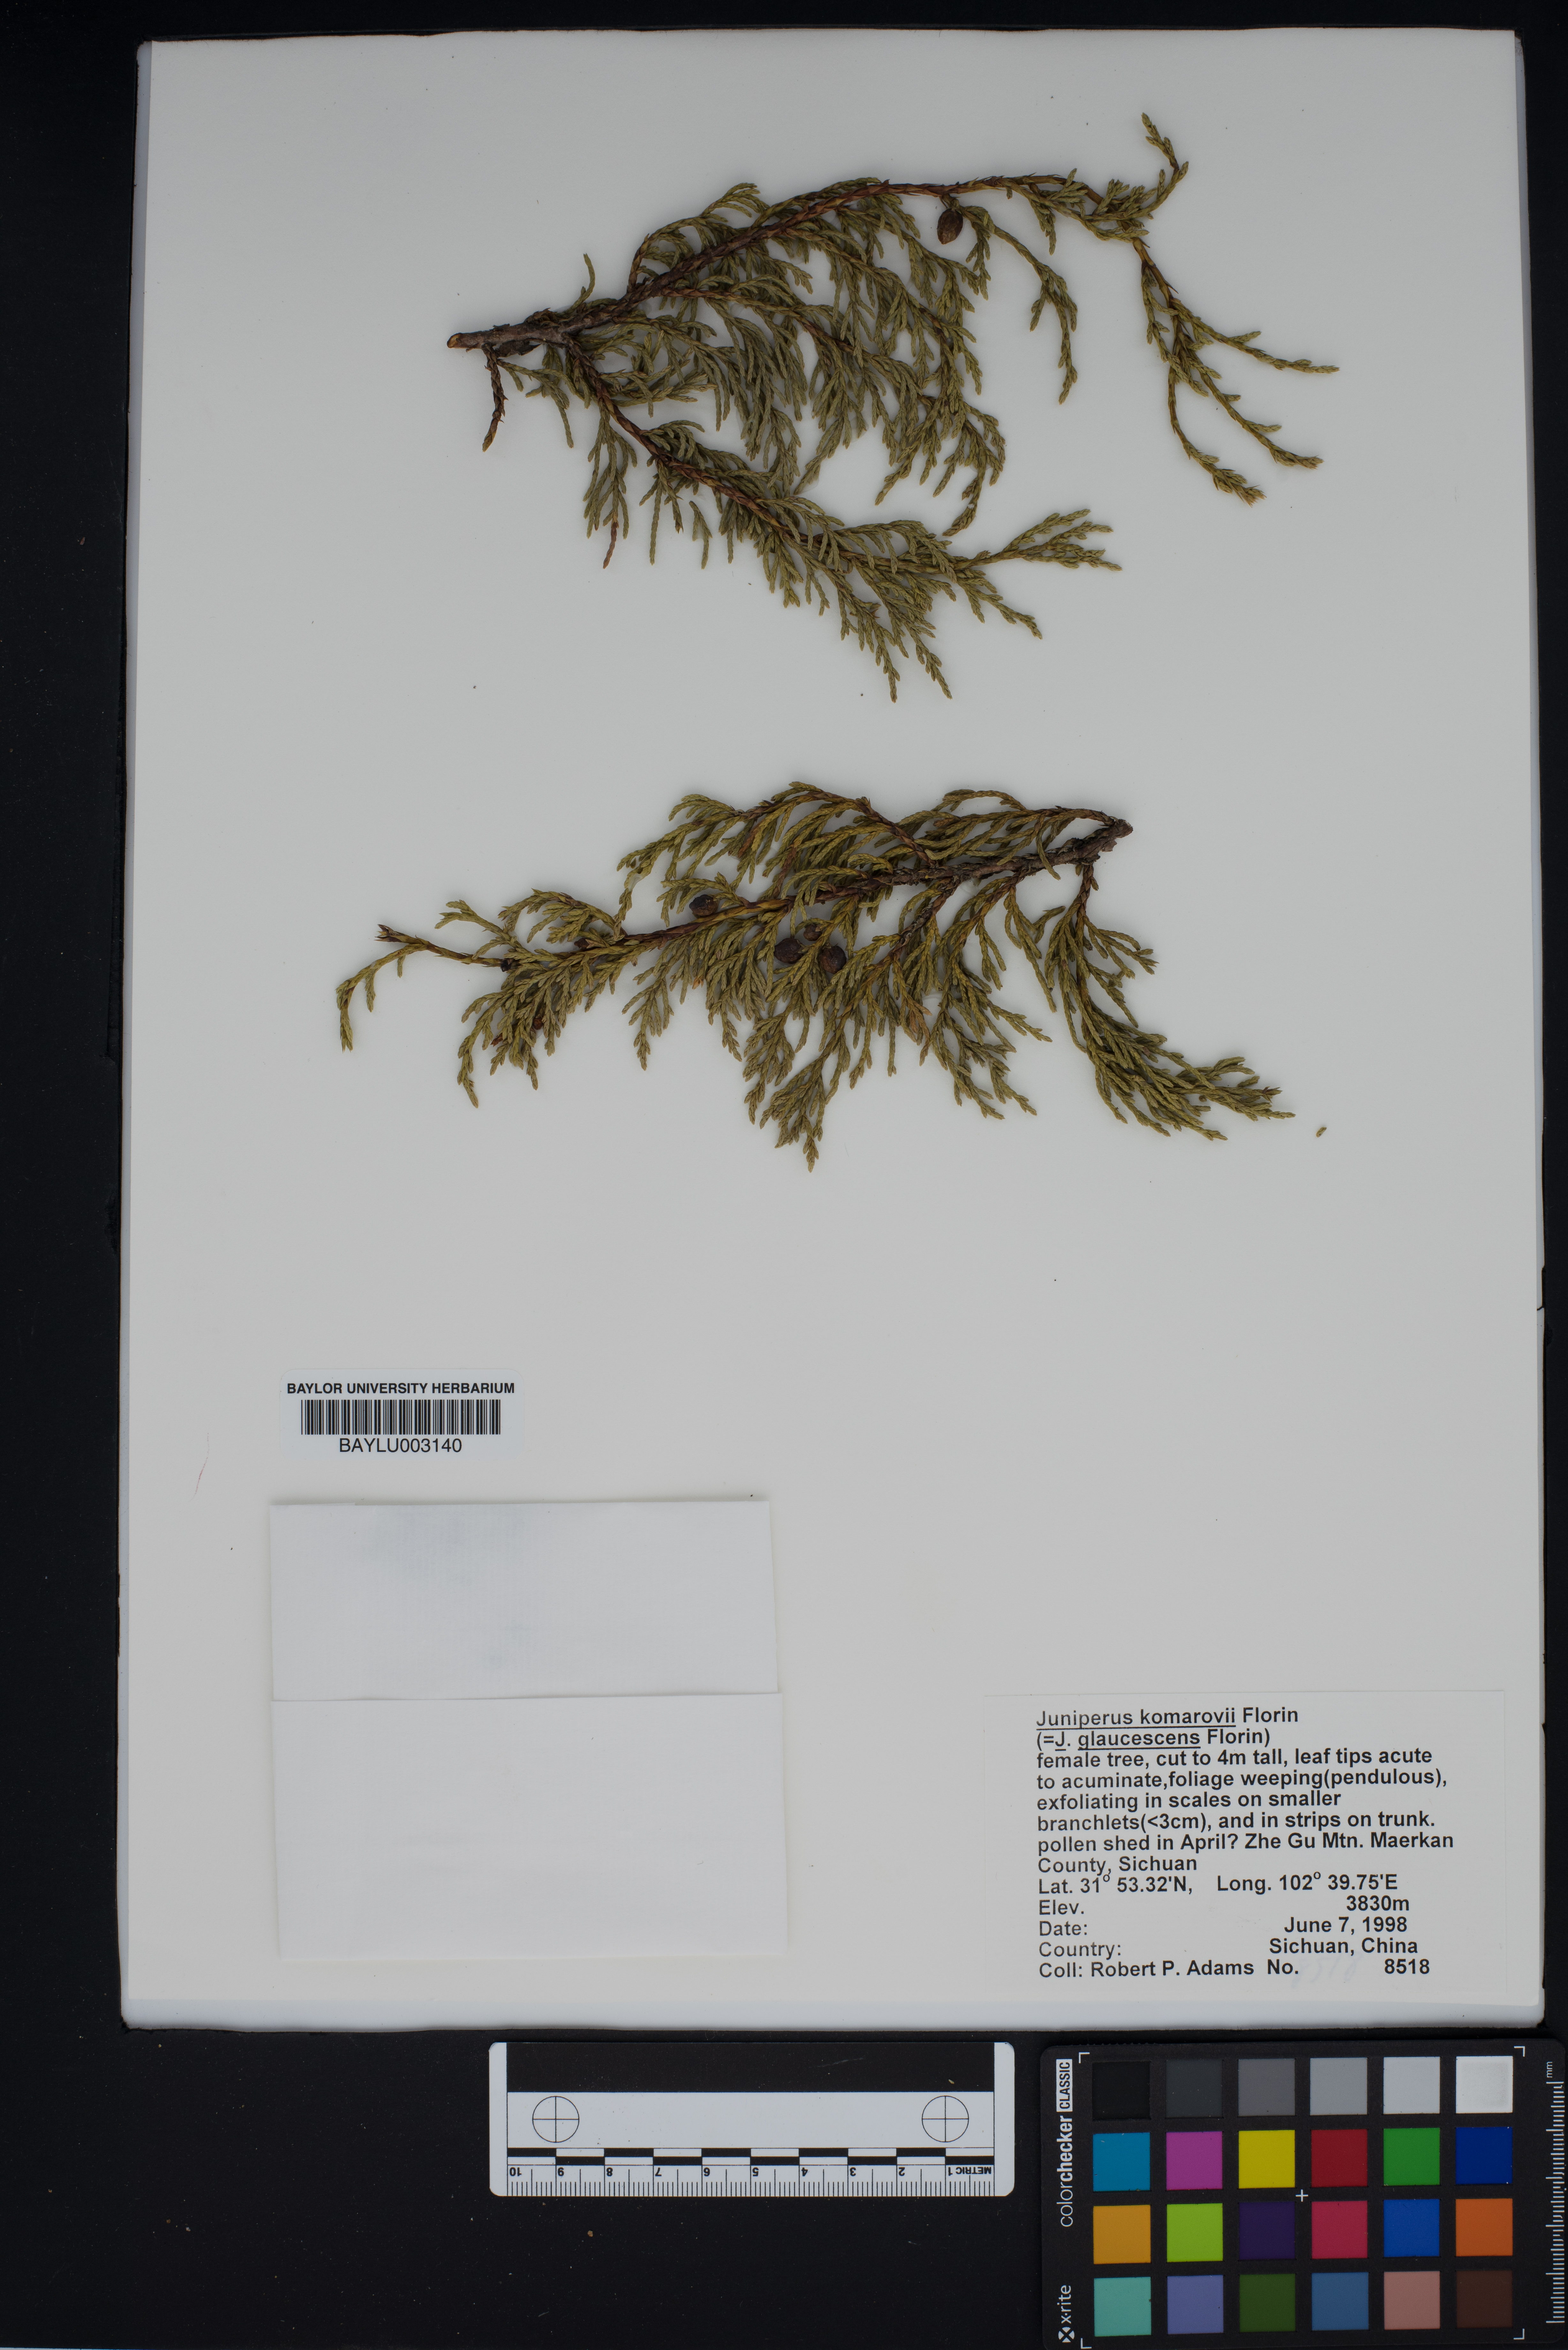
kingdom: Plantae
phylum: Tracheophyta
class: Pinopsida
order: Pinales
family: Cupressaceae
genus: Juniperus
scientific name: Juniperus komarovii
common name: Komarov's juniper
